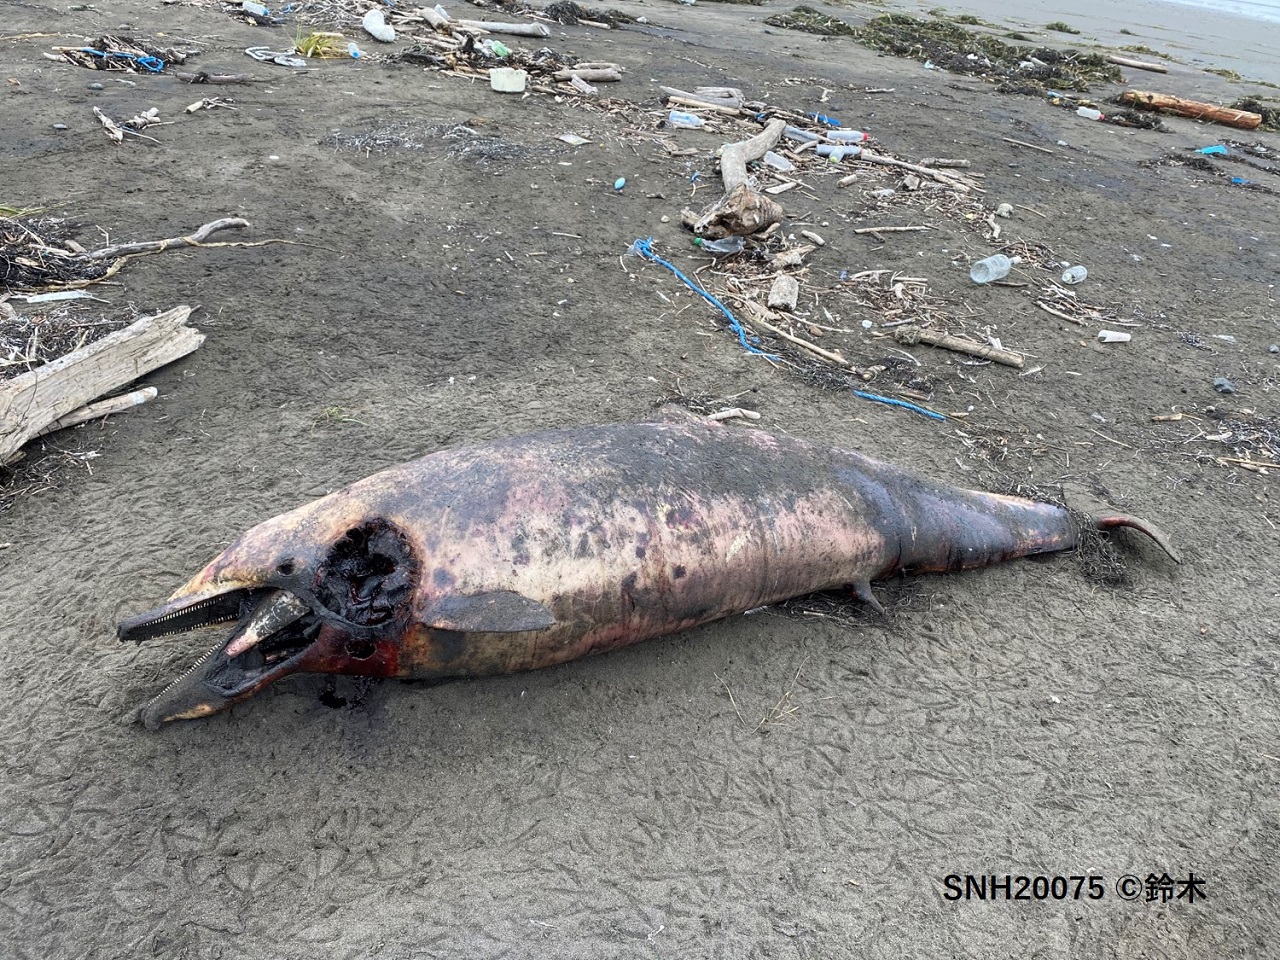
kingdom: Animalia
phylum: Chordata
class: Mammalia
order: Cetacea
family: Delphinidae
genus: Stenella
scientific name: Stenella coeruleoalba
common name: Striped dolphin
